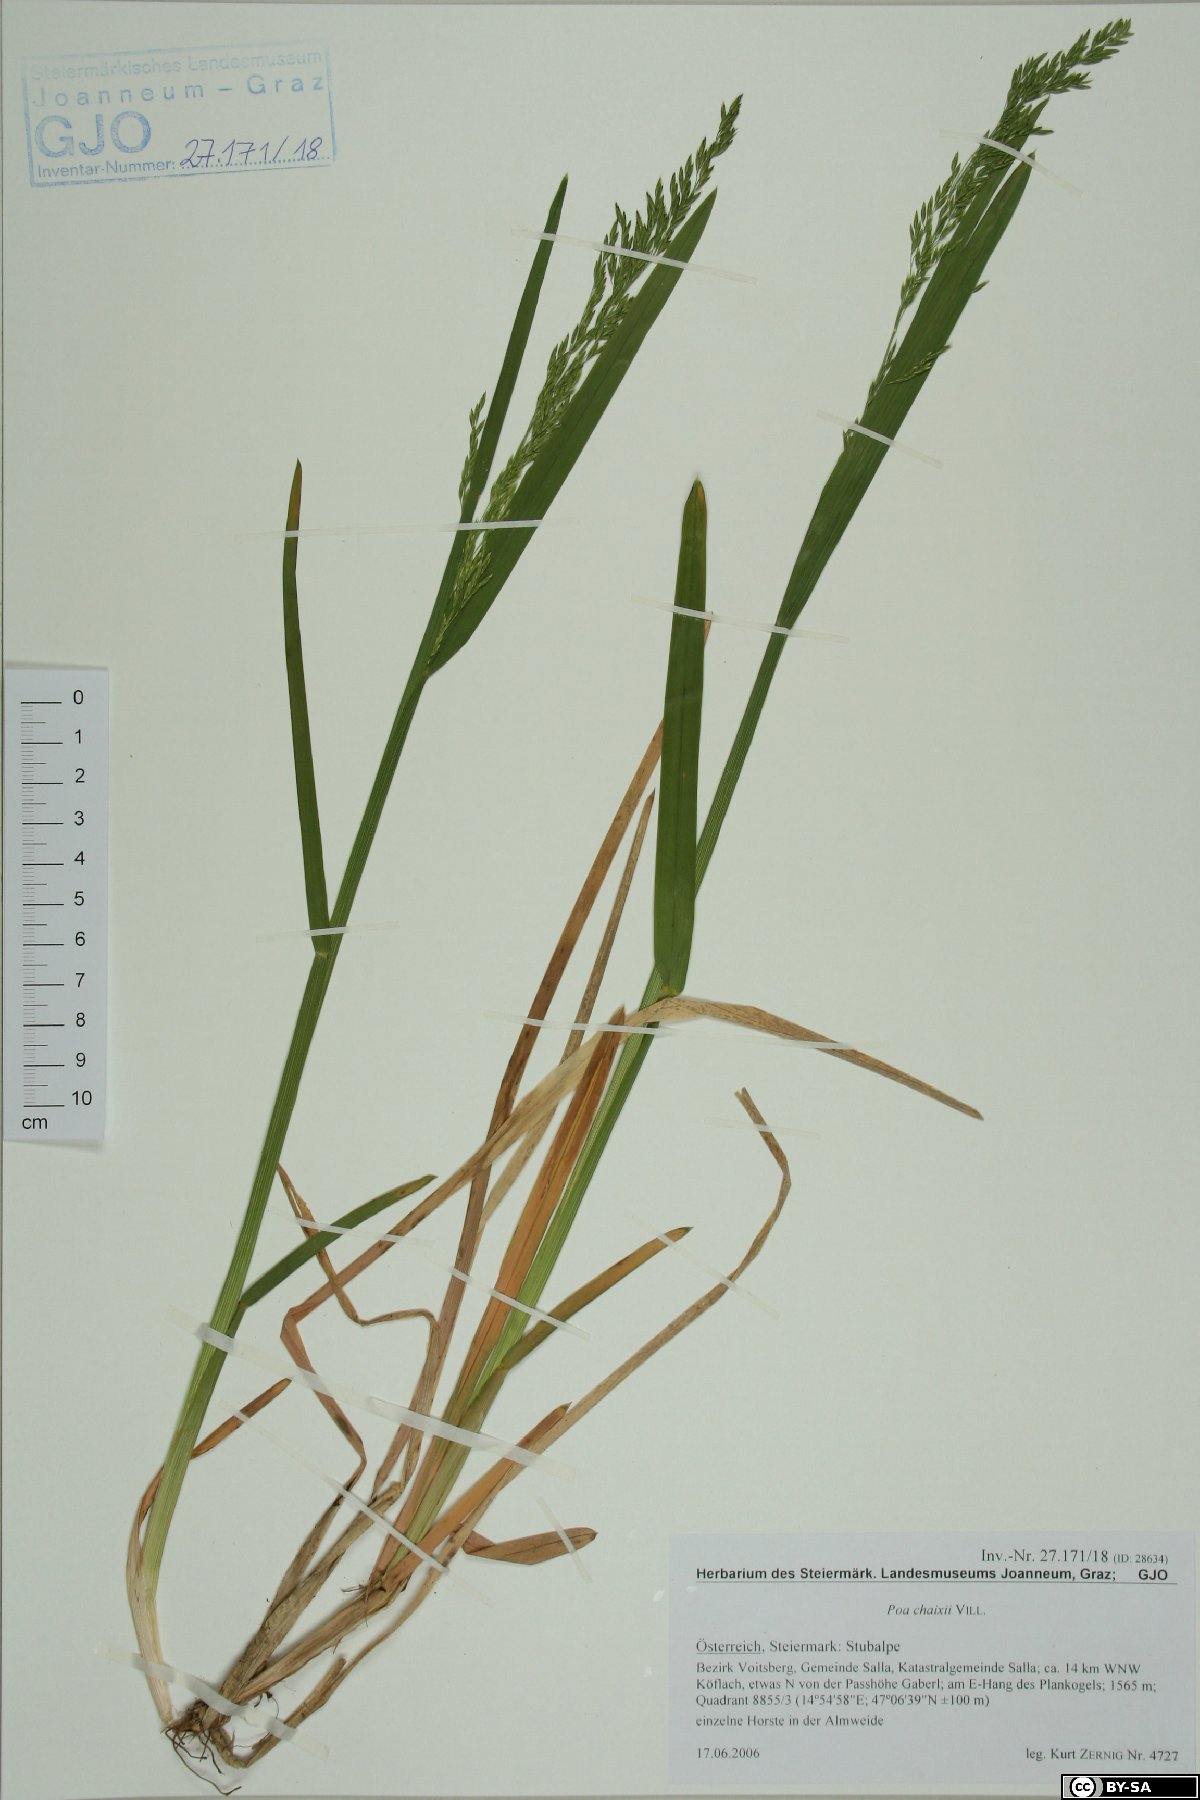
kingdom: Plantae
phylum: Tracheophyta
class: Liliopsida
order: Poales
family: Poaceae
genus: Poa
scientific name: Poa chaixii
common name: Broad-leaved meadow-grass
